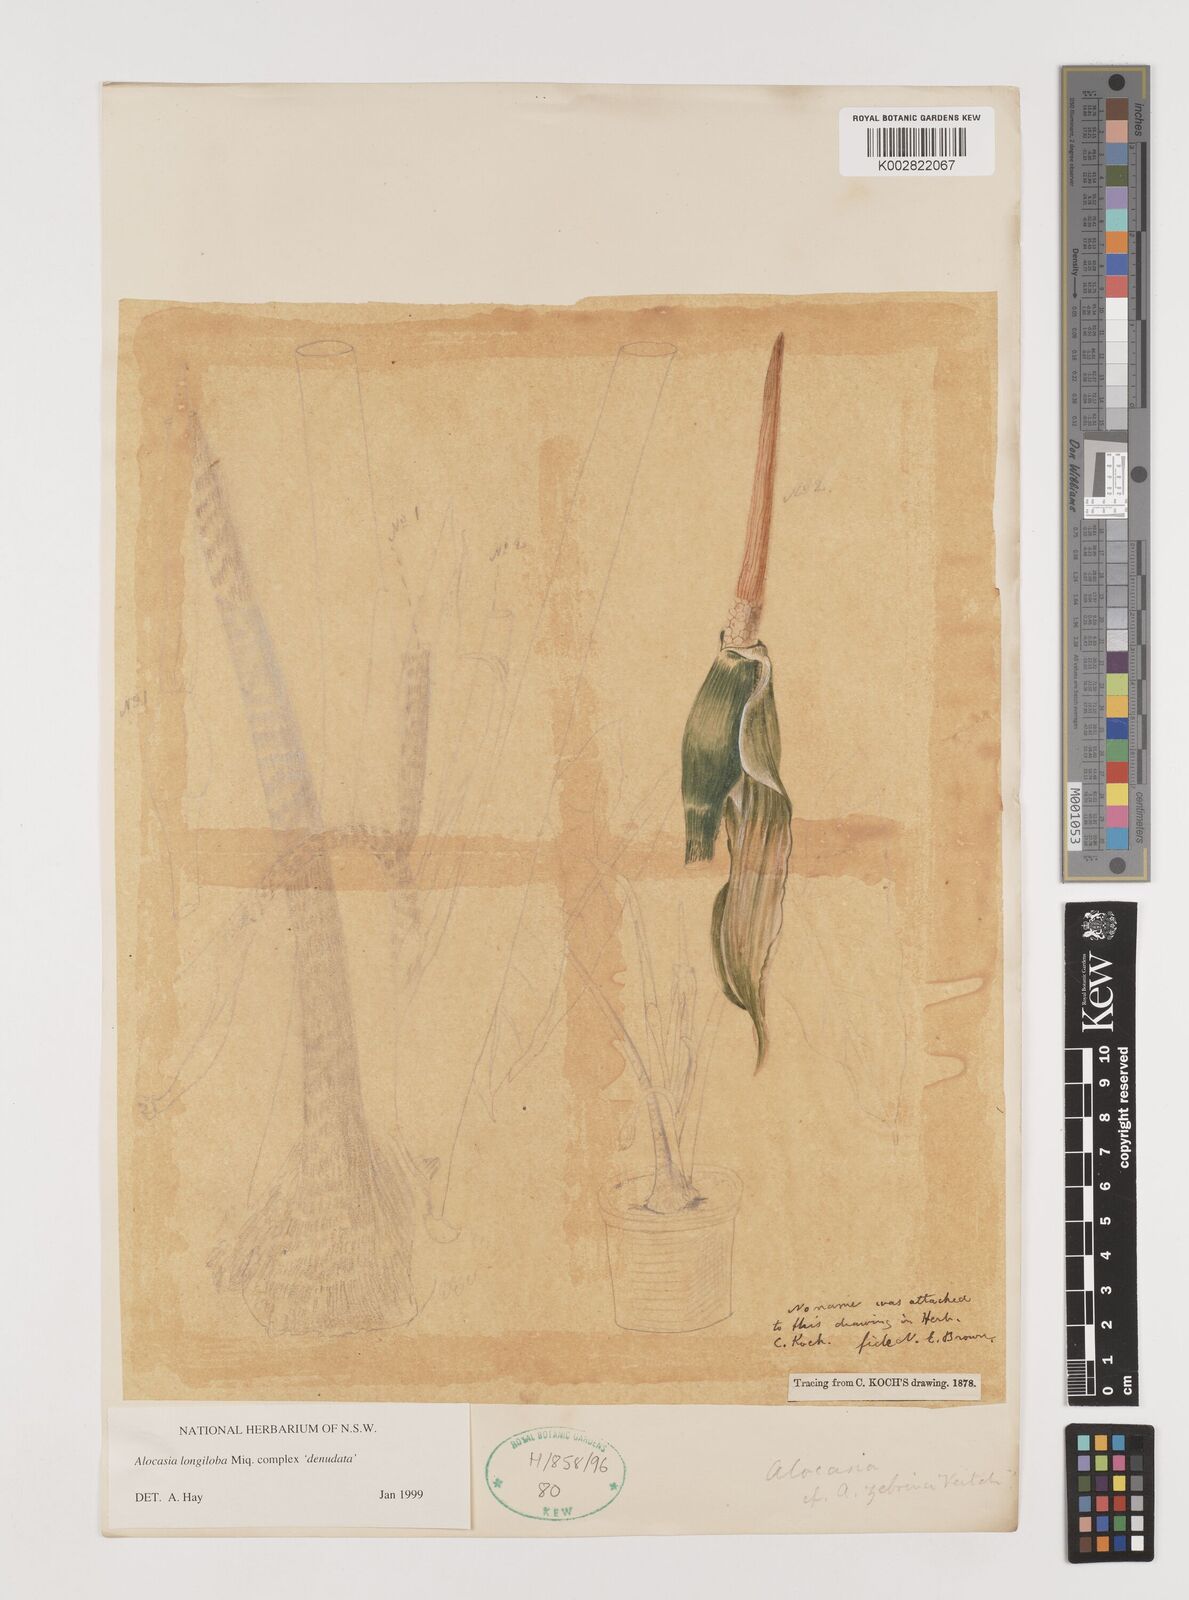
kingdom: Plantae
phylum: Tracheophyta
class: Liliopsida
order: Alismatales
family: Araceae
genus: Alocasia
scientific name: Alocasia longiloba
